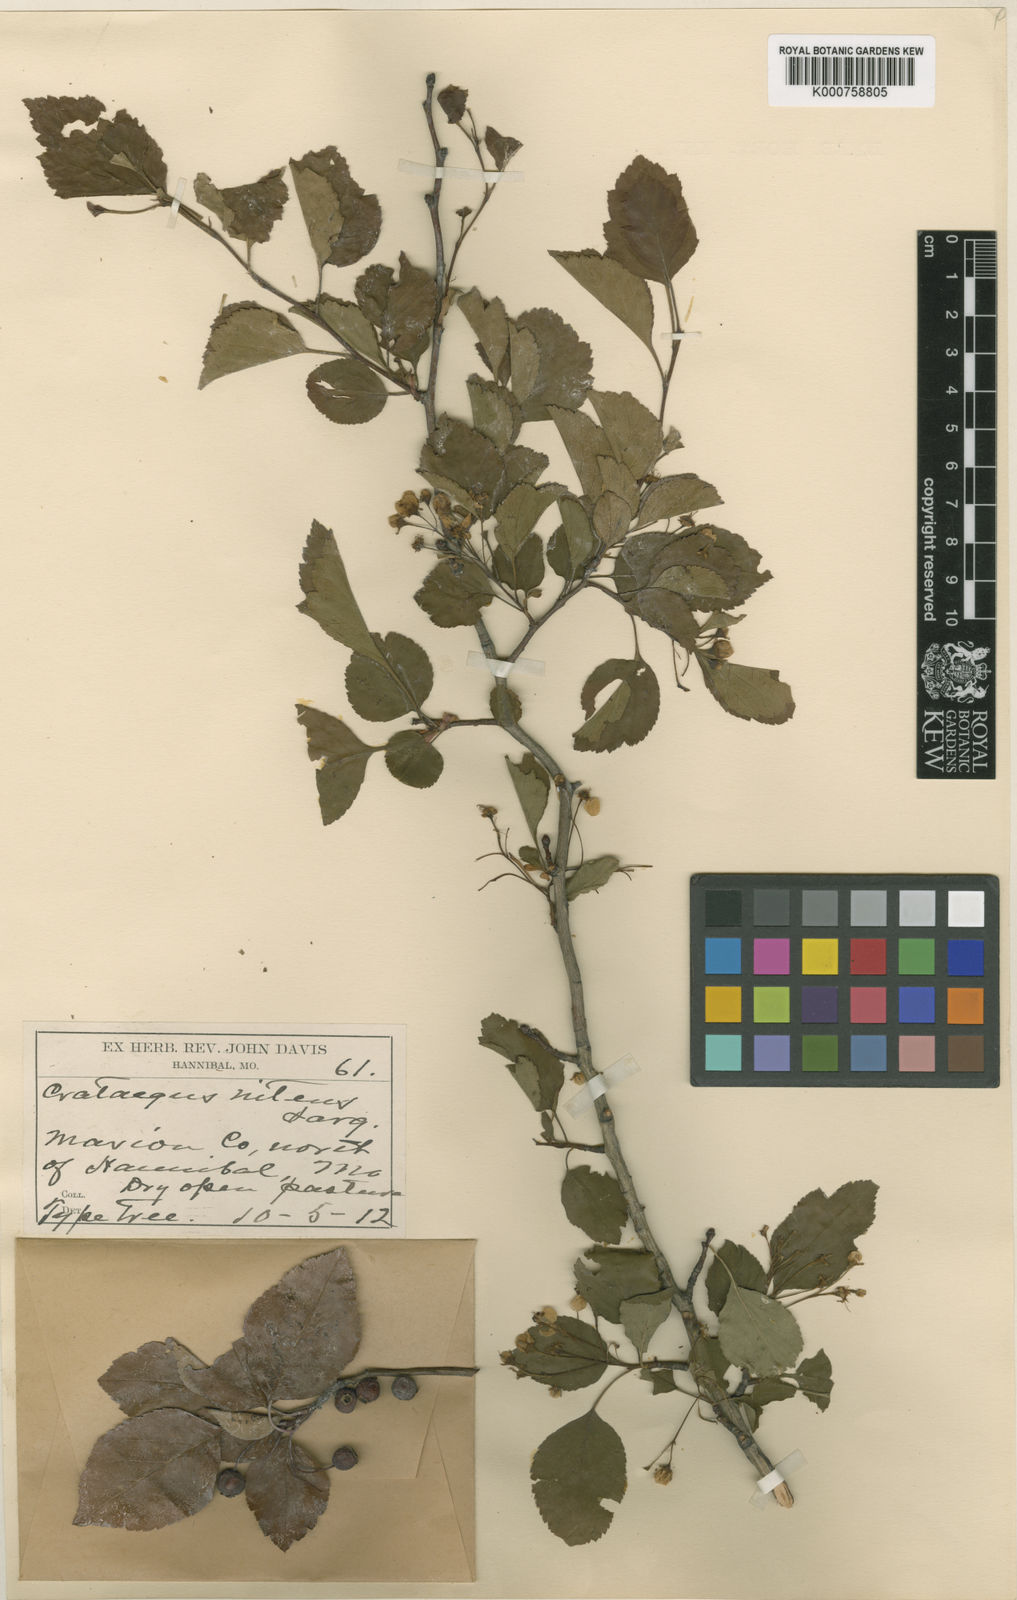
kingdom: Plantae
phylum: Tracheophyta
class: Magnoliopsida
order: Rosales
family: Rosaceae
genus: Crataegus
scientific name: Crataegus viridis
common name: Southernthorn
